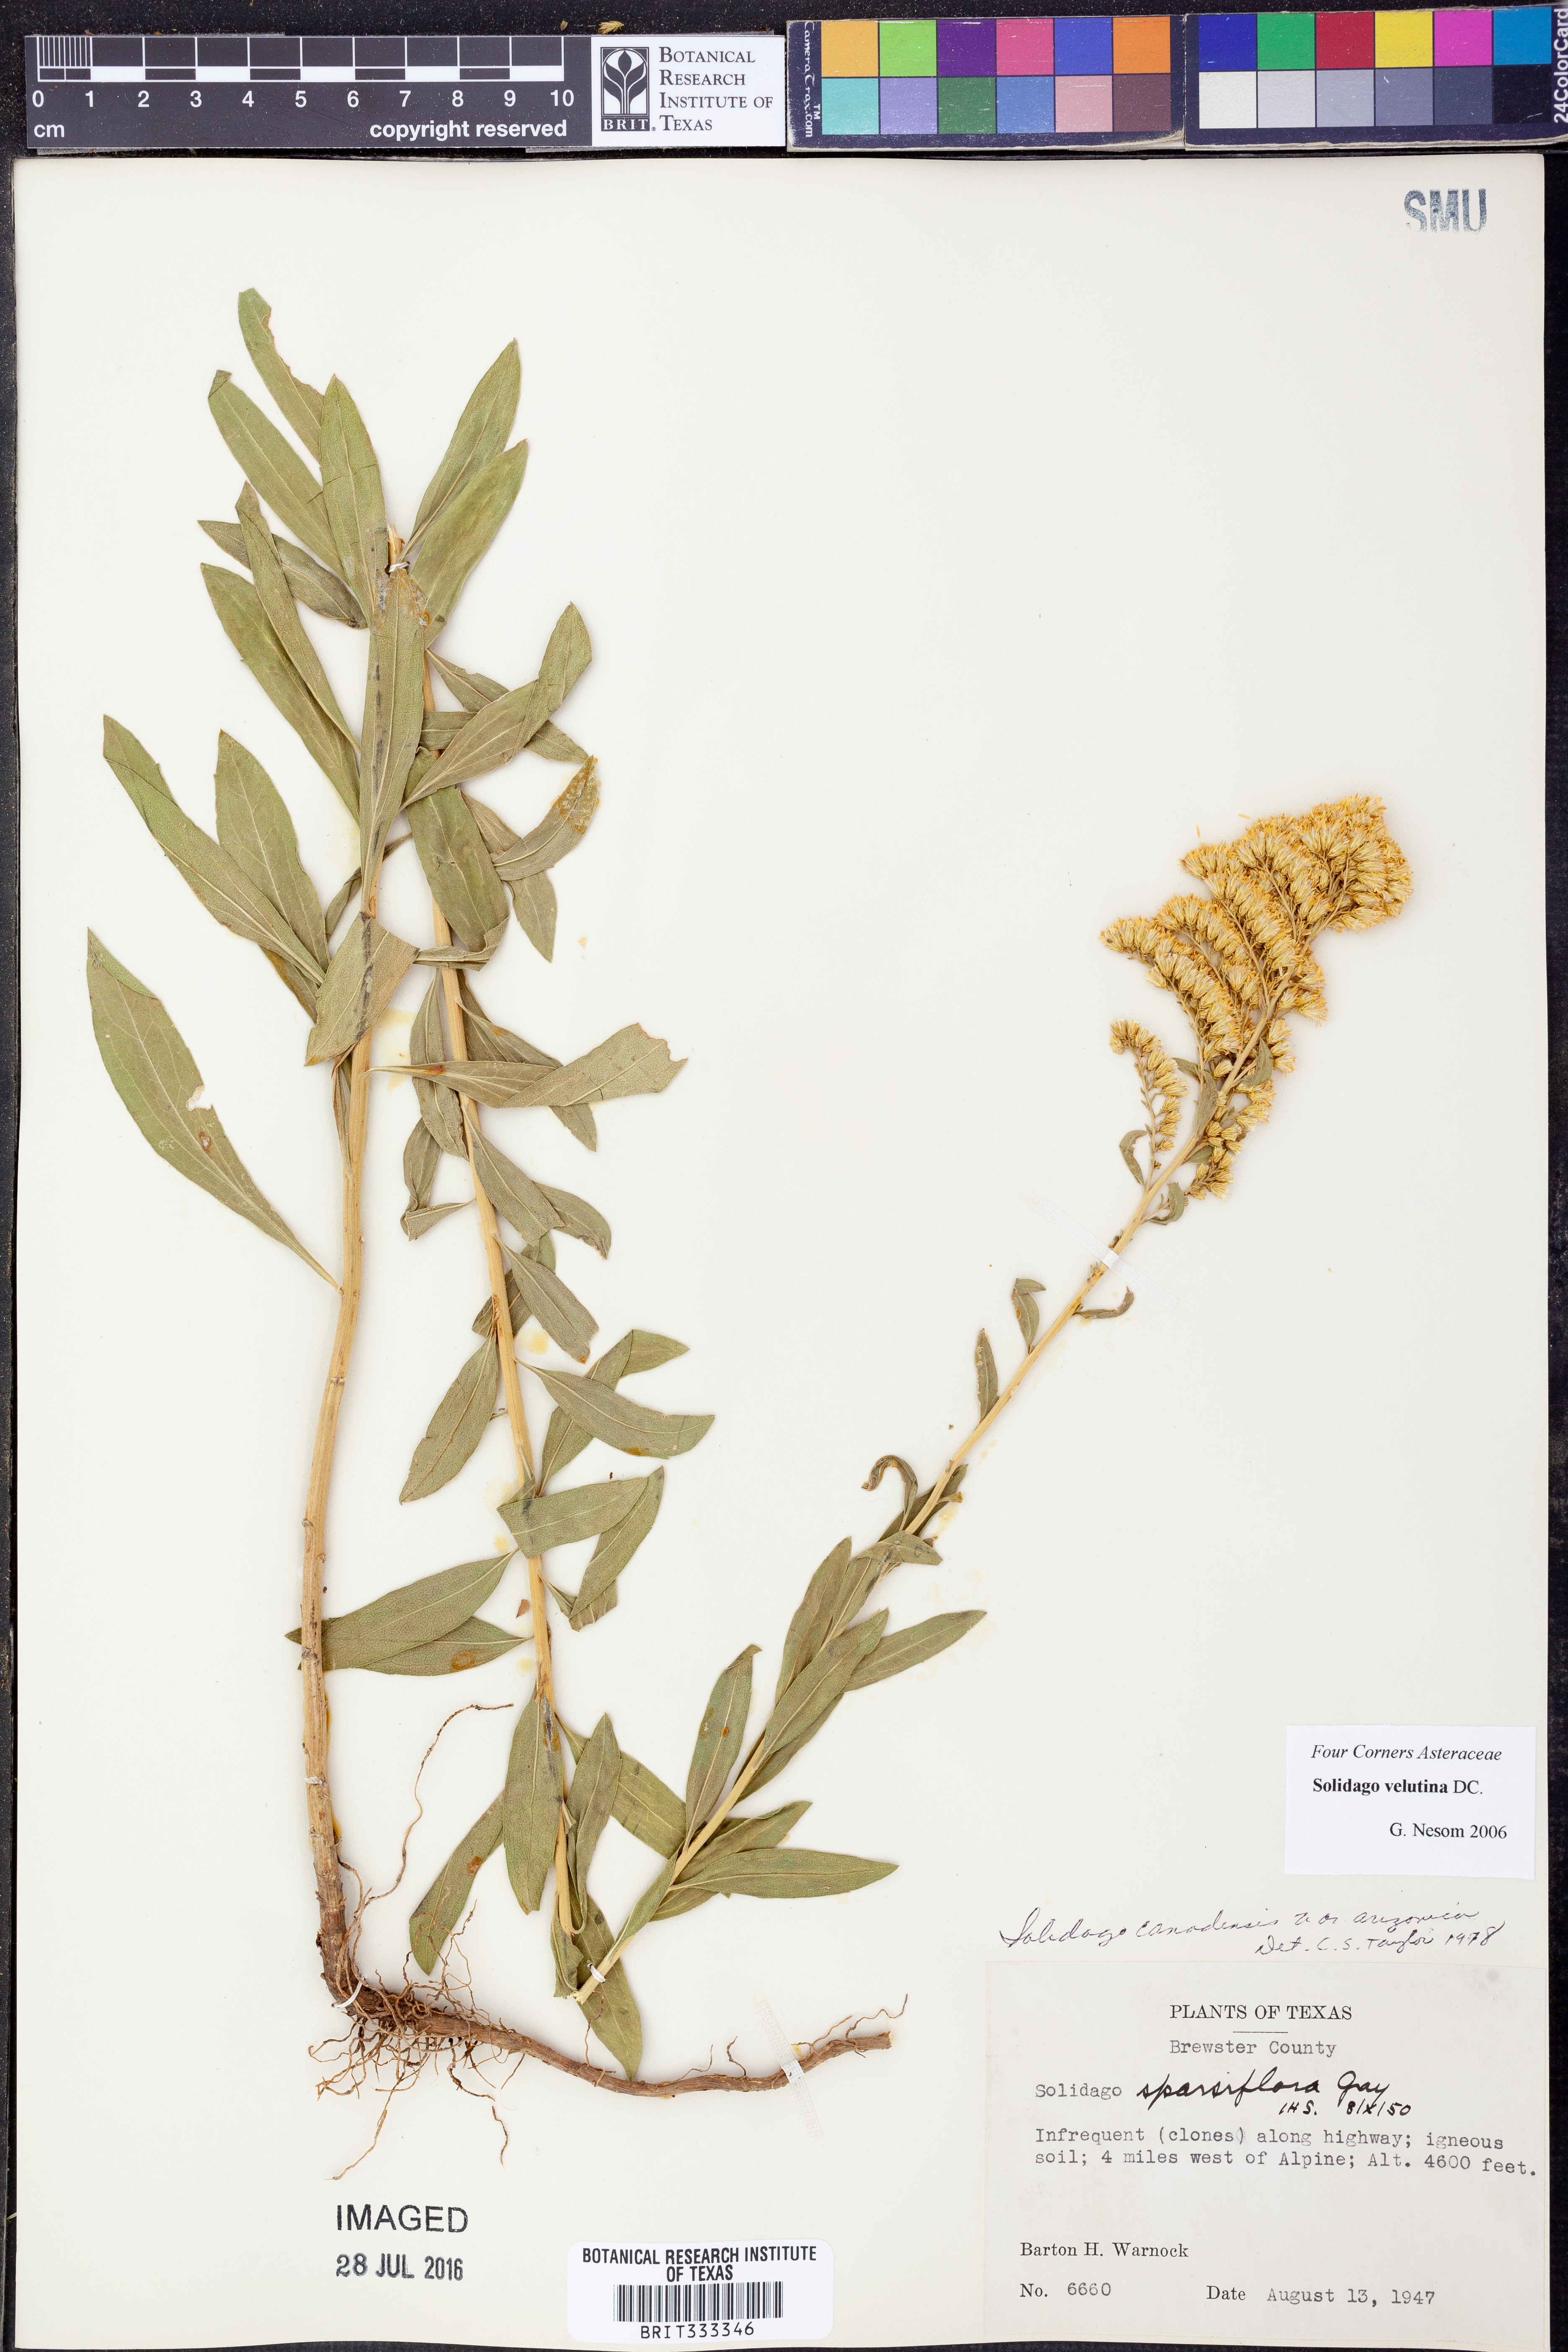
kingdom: Plantae
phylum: Tracheophyta
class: Magnoliopsida
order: Asterales
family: Asteraceae
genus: Solidago
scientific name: Solidago velutina
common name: Three-nerve goldenrod
